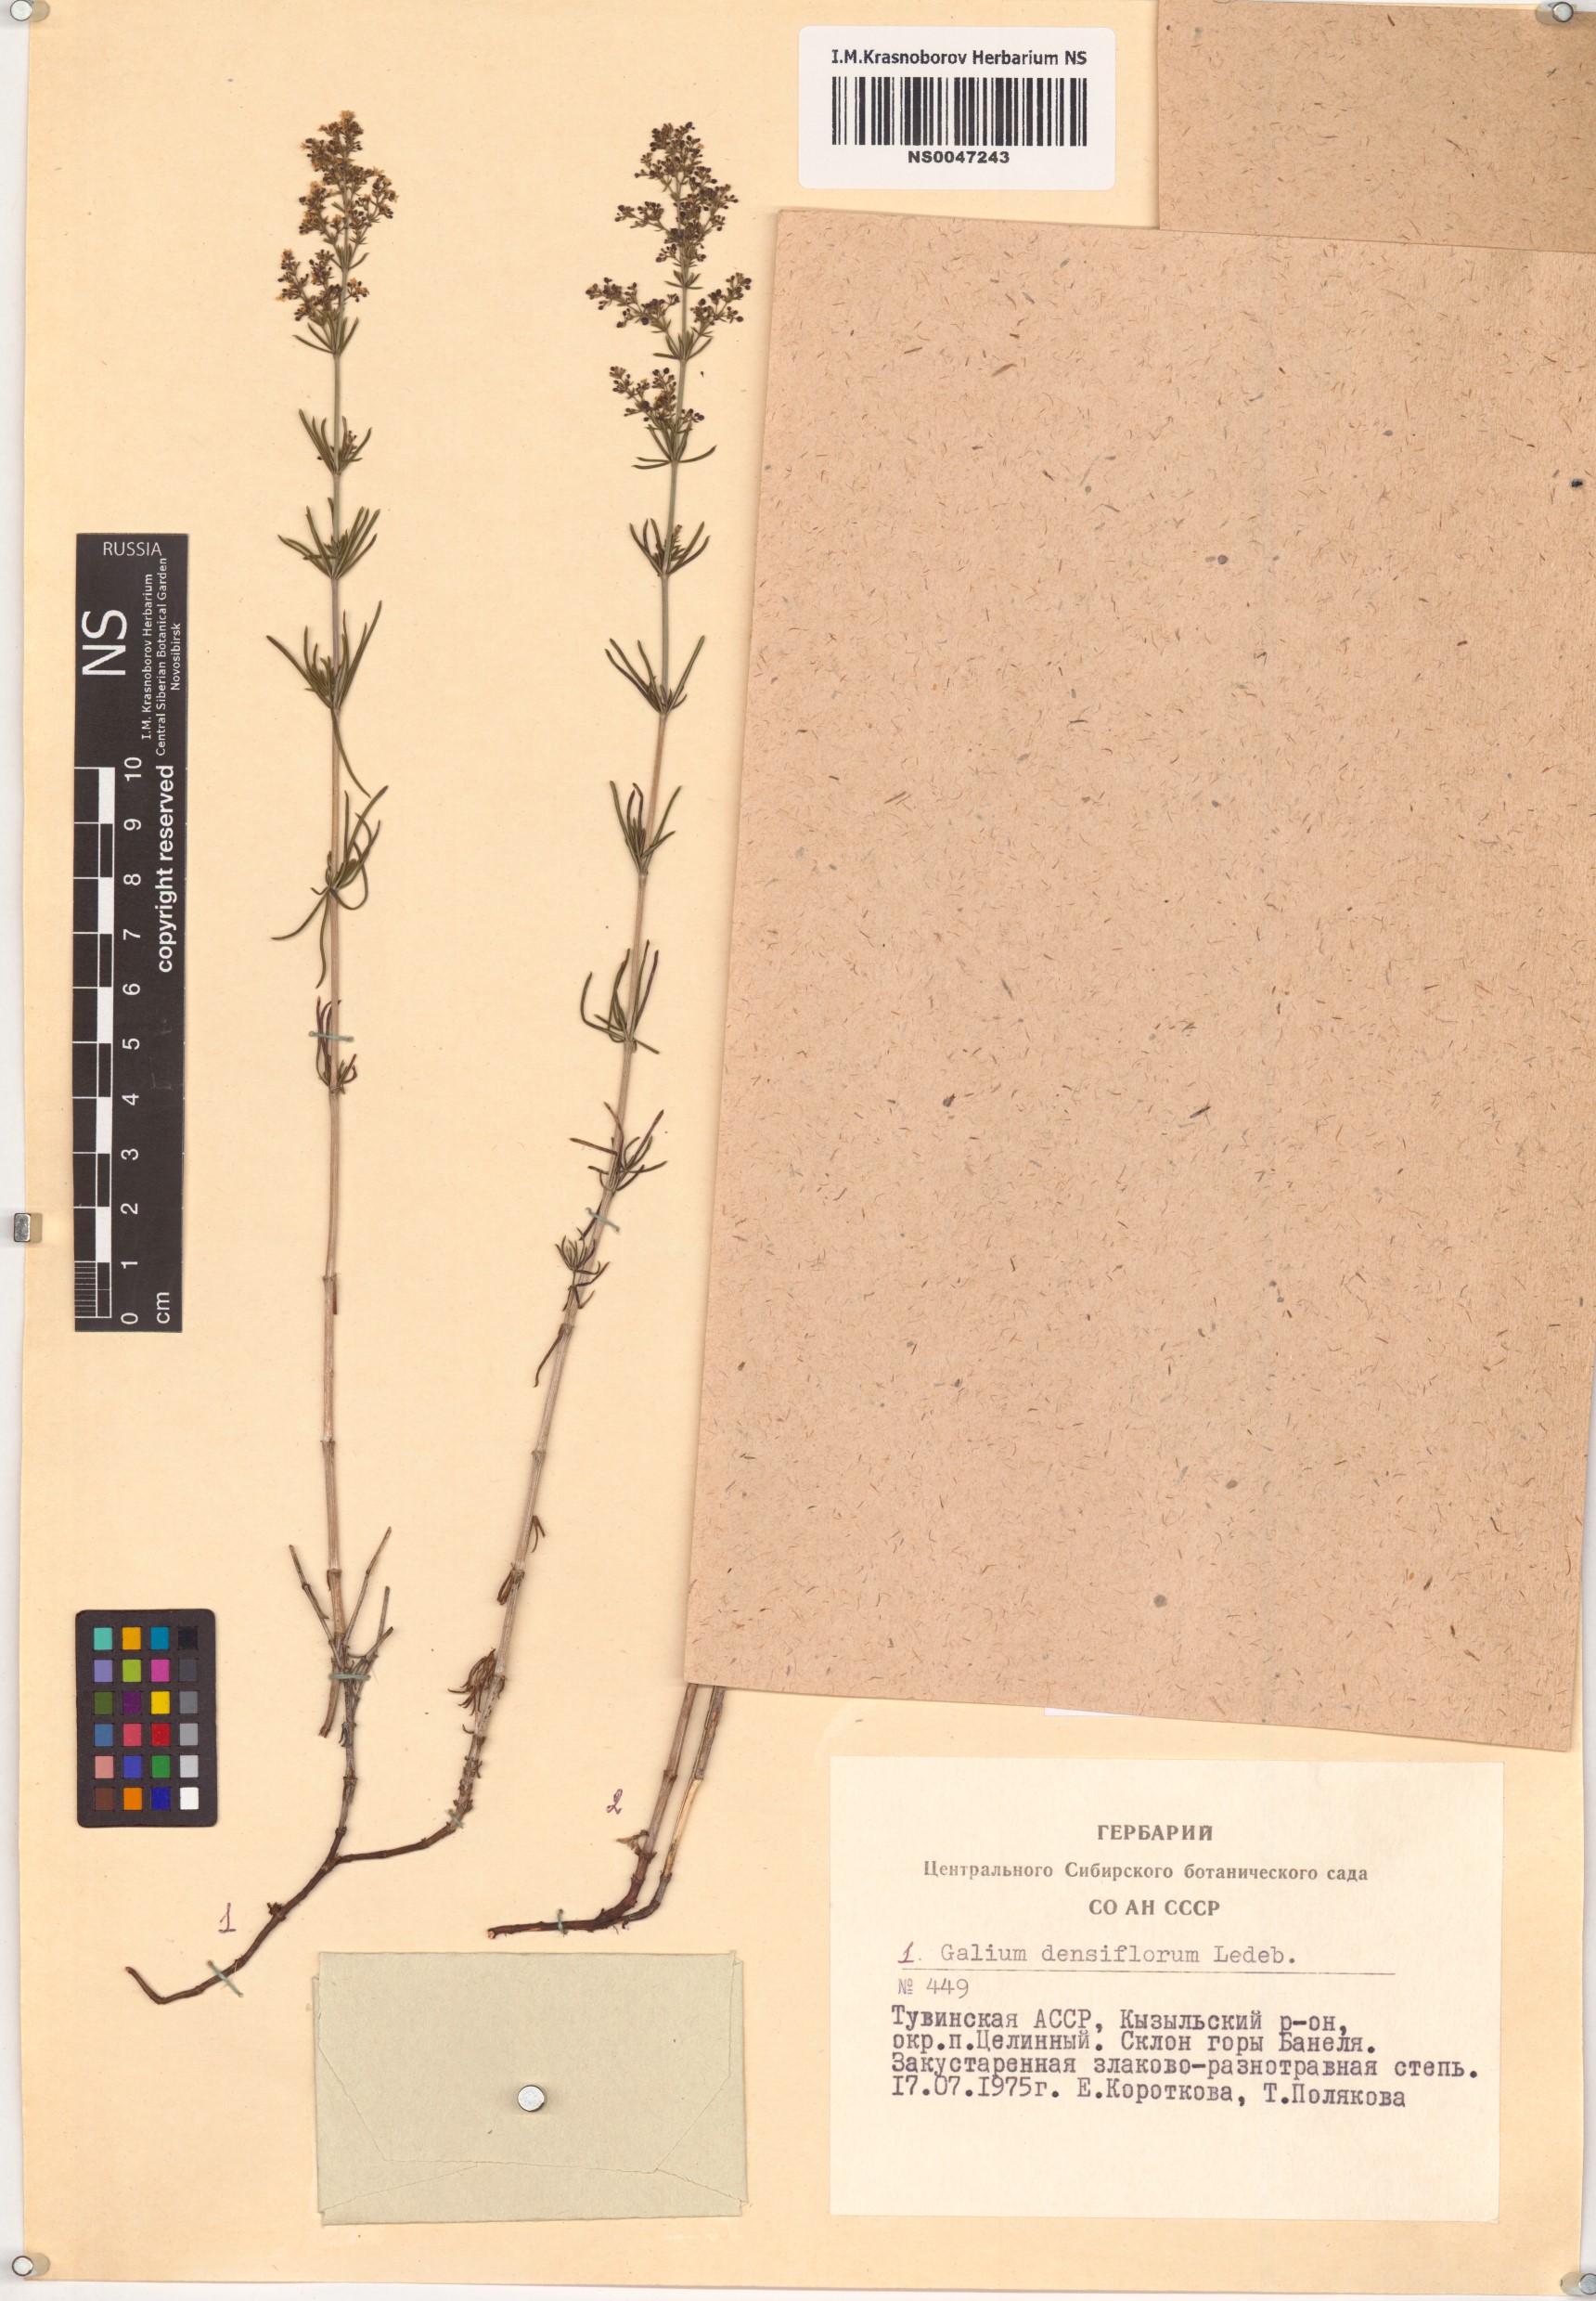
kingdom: Plantae
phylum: Tracheophyta
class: Magnoliopsida
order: Gentianales
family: Rubiaceae
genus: Galium
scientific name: Galium densiflorum
